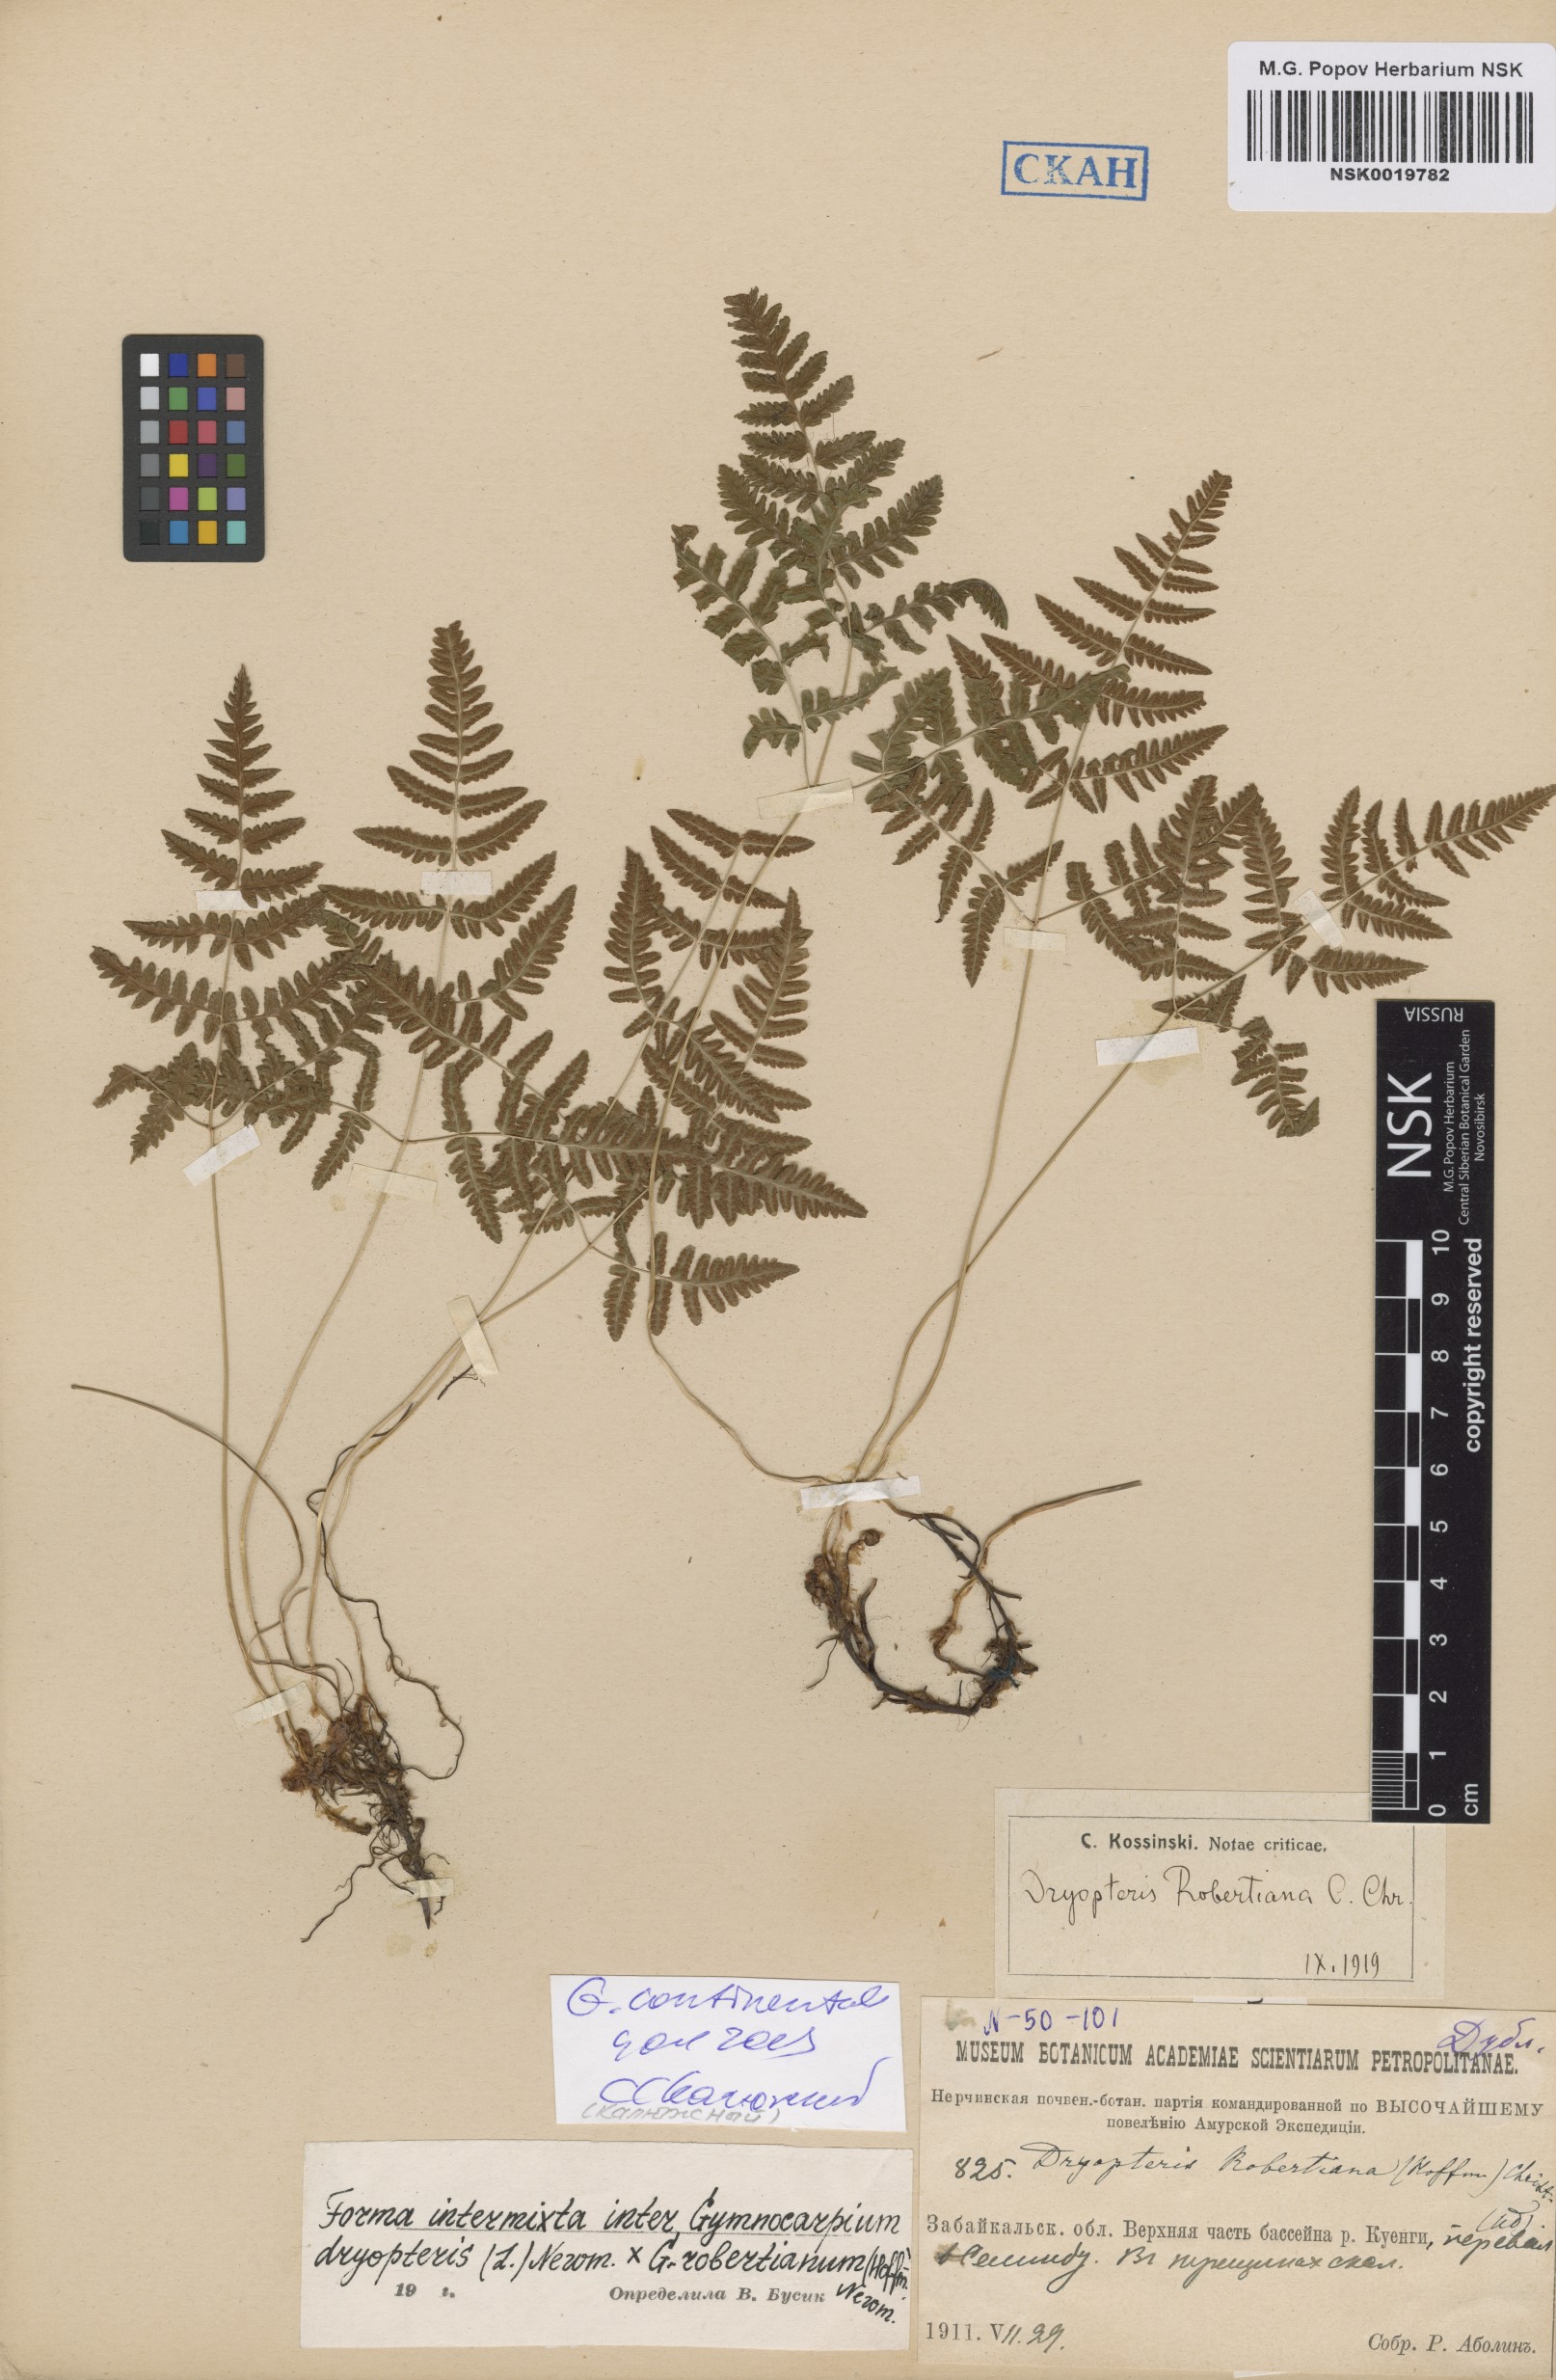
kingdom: Plantae
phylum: Tracheophyta
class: Polypodiopsida
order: Polypodiales
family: Cystopteridaceae
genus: Gymnocarpium
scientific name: Gymnocarpium continentale
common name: Asian oak fern
